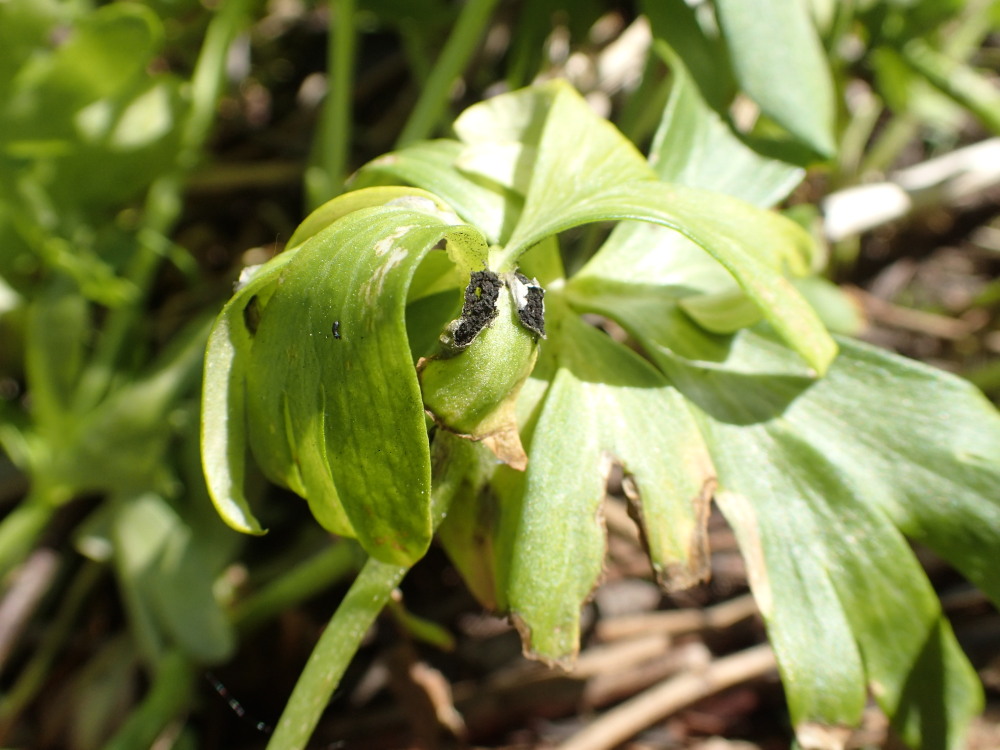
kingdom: Fungi
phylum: Basidiomycota
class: Ustilaginomycetes
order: Urocystidales
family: Urocystidaceae
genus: Urocystis
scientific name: Urocystis eranthidis
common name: erantis-brand
